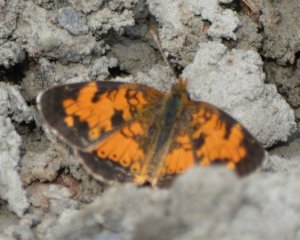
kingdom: Animalia
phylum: Arthropoda
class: Insecta
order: Lepidoptera
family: Nymphalidae
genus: Phyciodes
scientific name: Phyciodes tharos
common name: Northern Crescent
